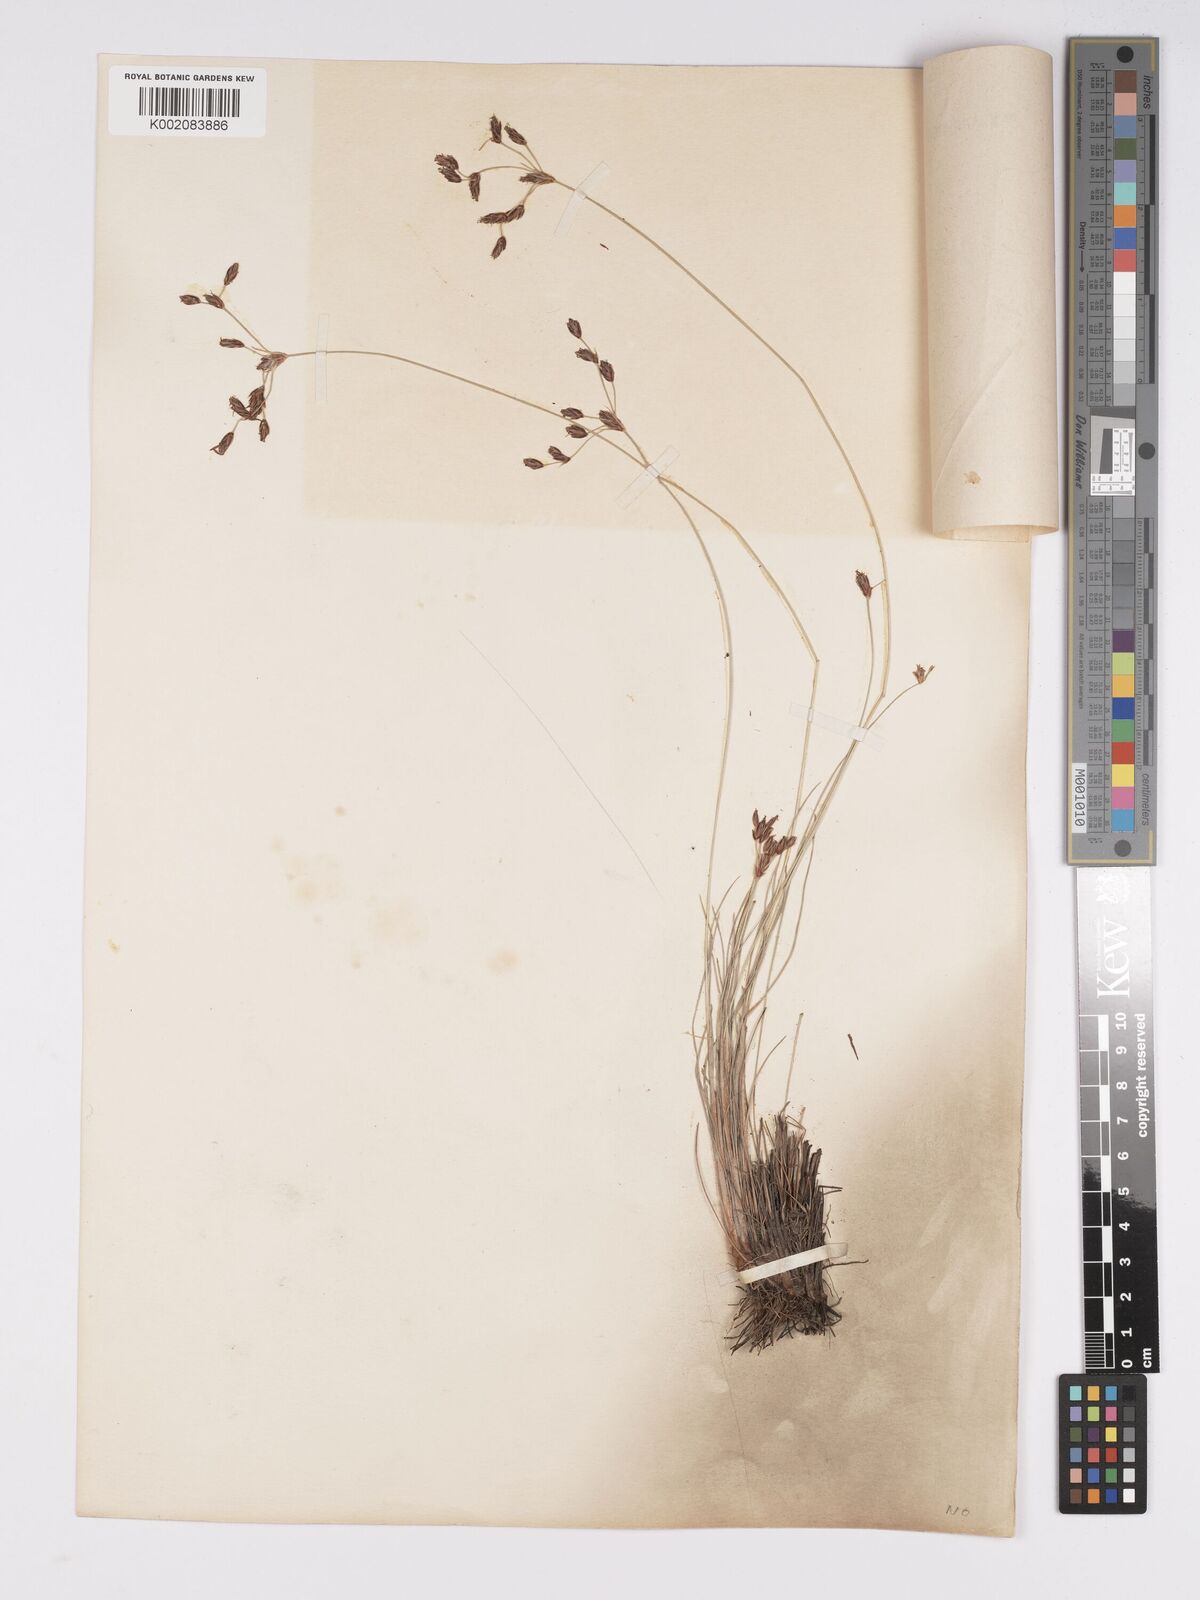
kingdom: Plantae
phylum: Tracheophyta
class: Liliopsida
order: Poales
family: Cyperaceae
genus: Bulbostylis
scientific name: Bulbostylis hispidula
